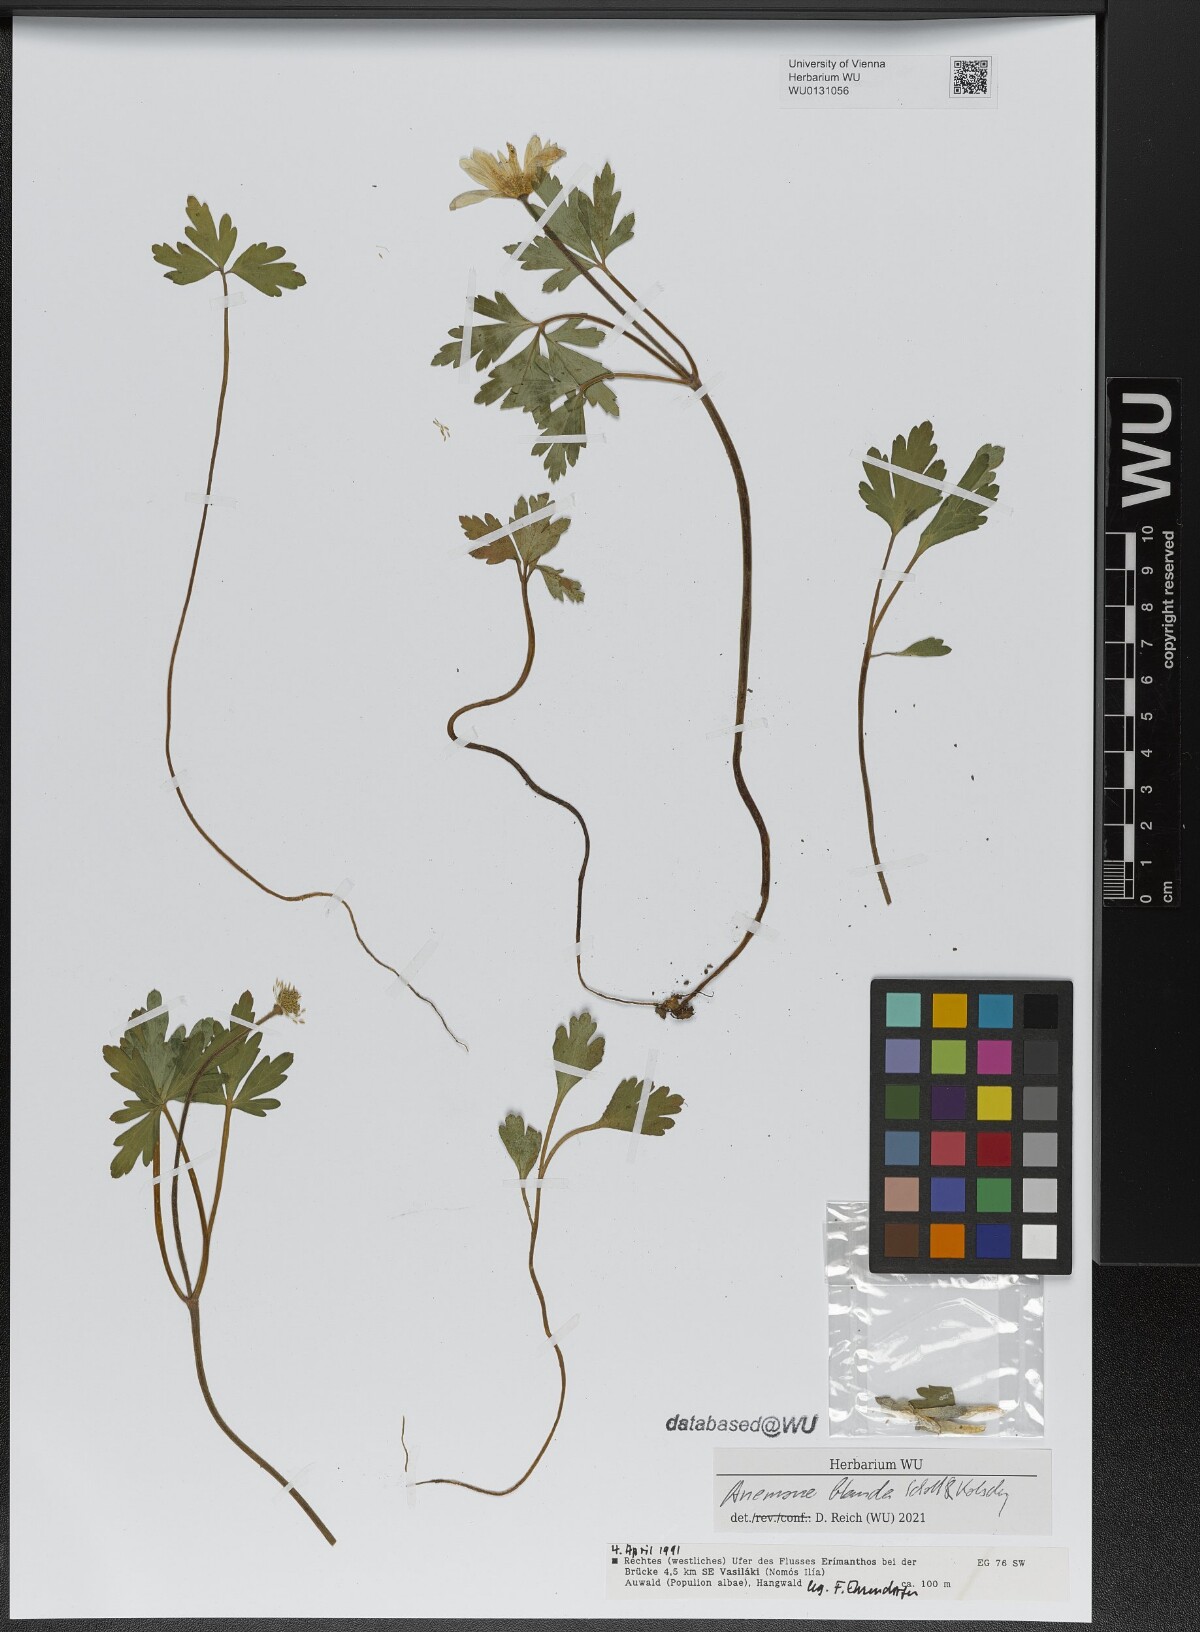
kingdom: Plantae
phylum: Tracheophyta
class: Magnoliopsida
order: Ranunculales
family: Ranunculaceae
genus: Anemone
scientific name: Anemone blanda
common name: Balkan anemone
